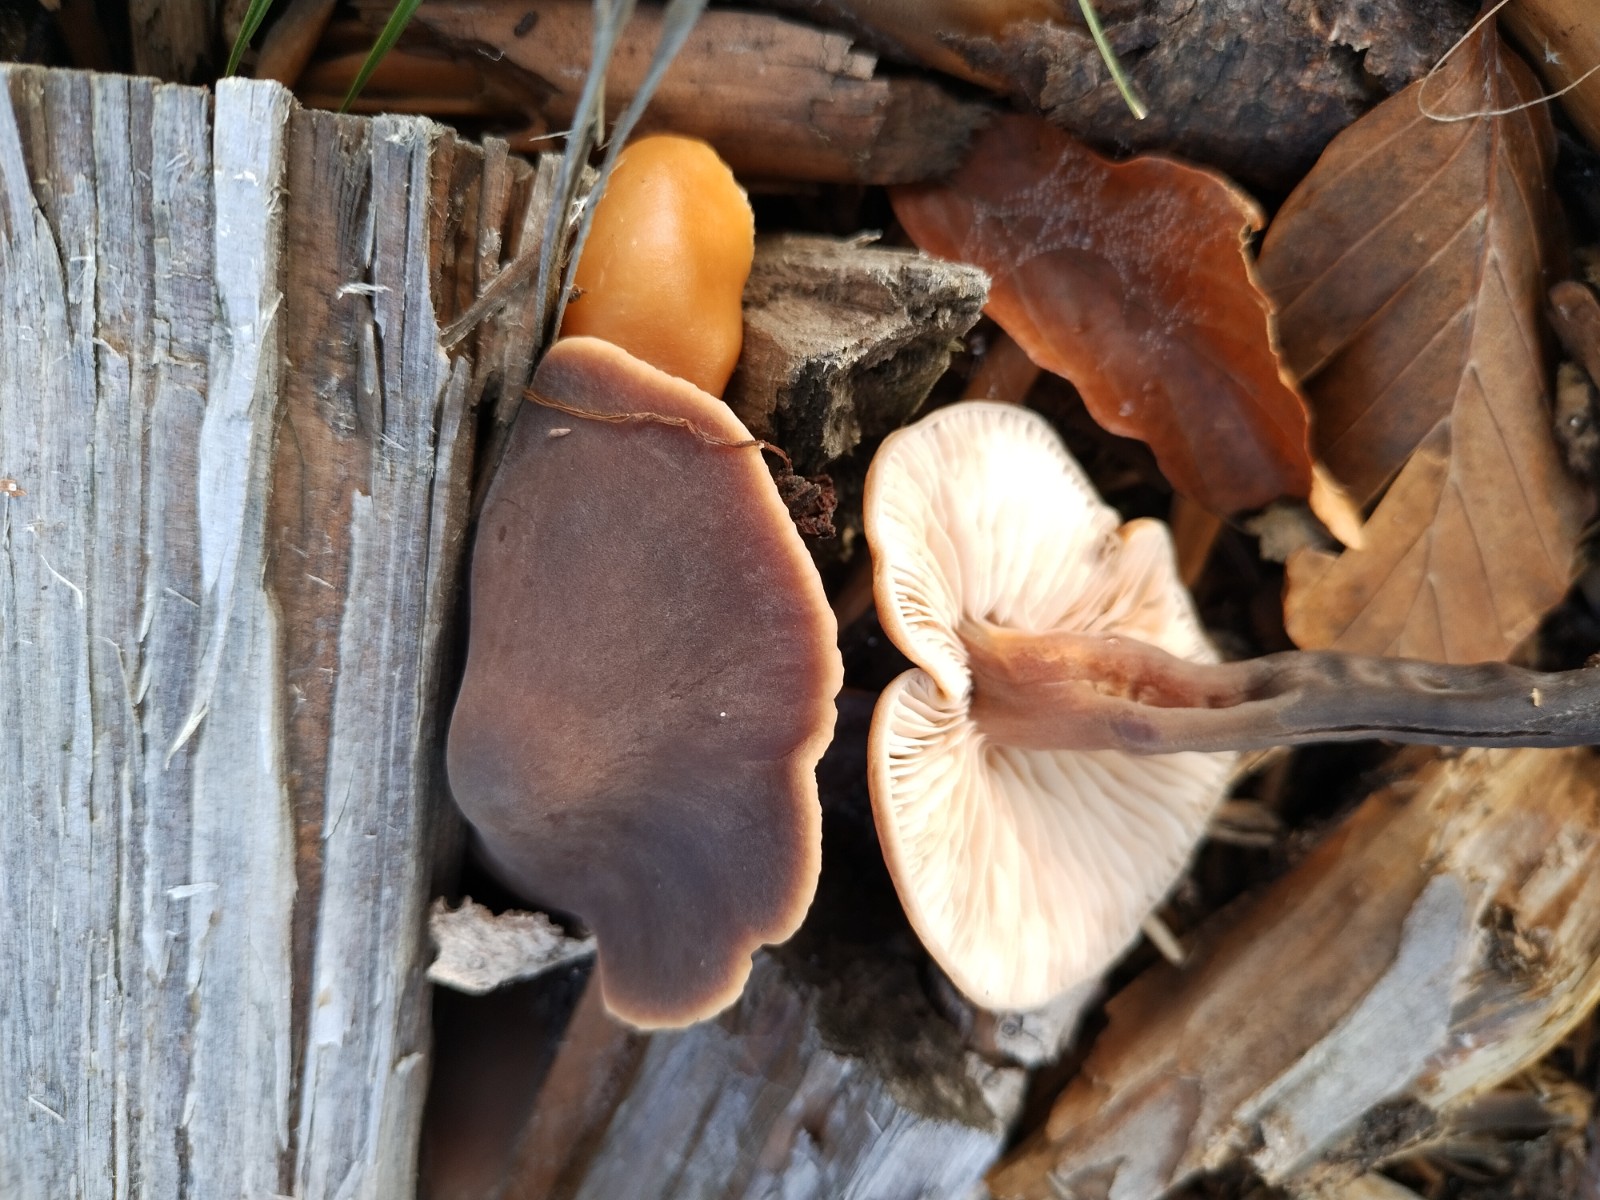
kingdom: Fungi
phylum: Basidiomycota
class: Agaricomycetes
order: Agaricales
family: Macrocystidiaceae
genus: Macrocystidia
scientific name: Macrocystidia cucumis
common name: agurkehat
